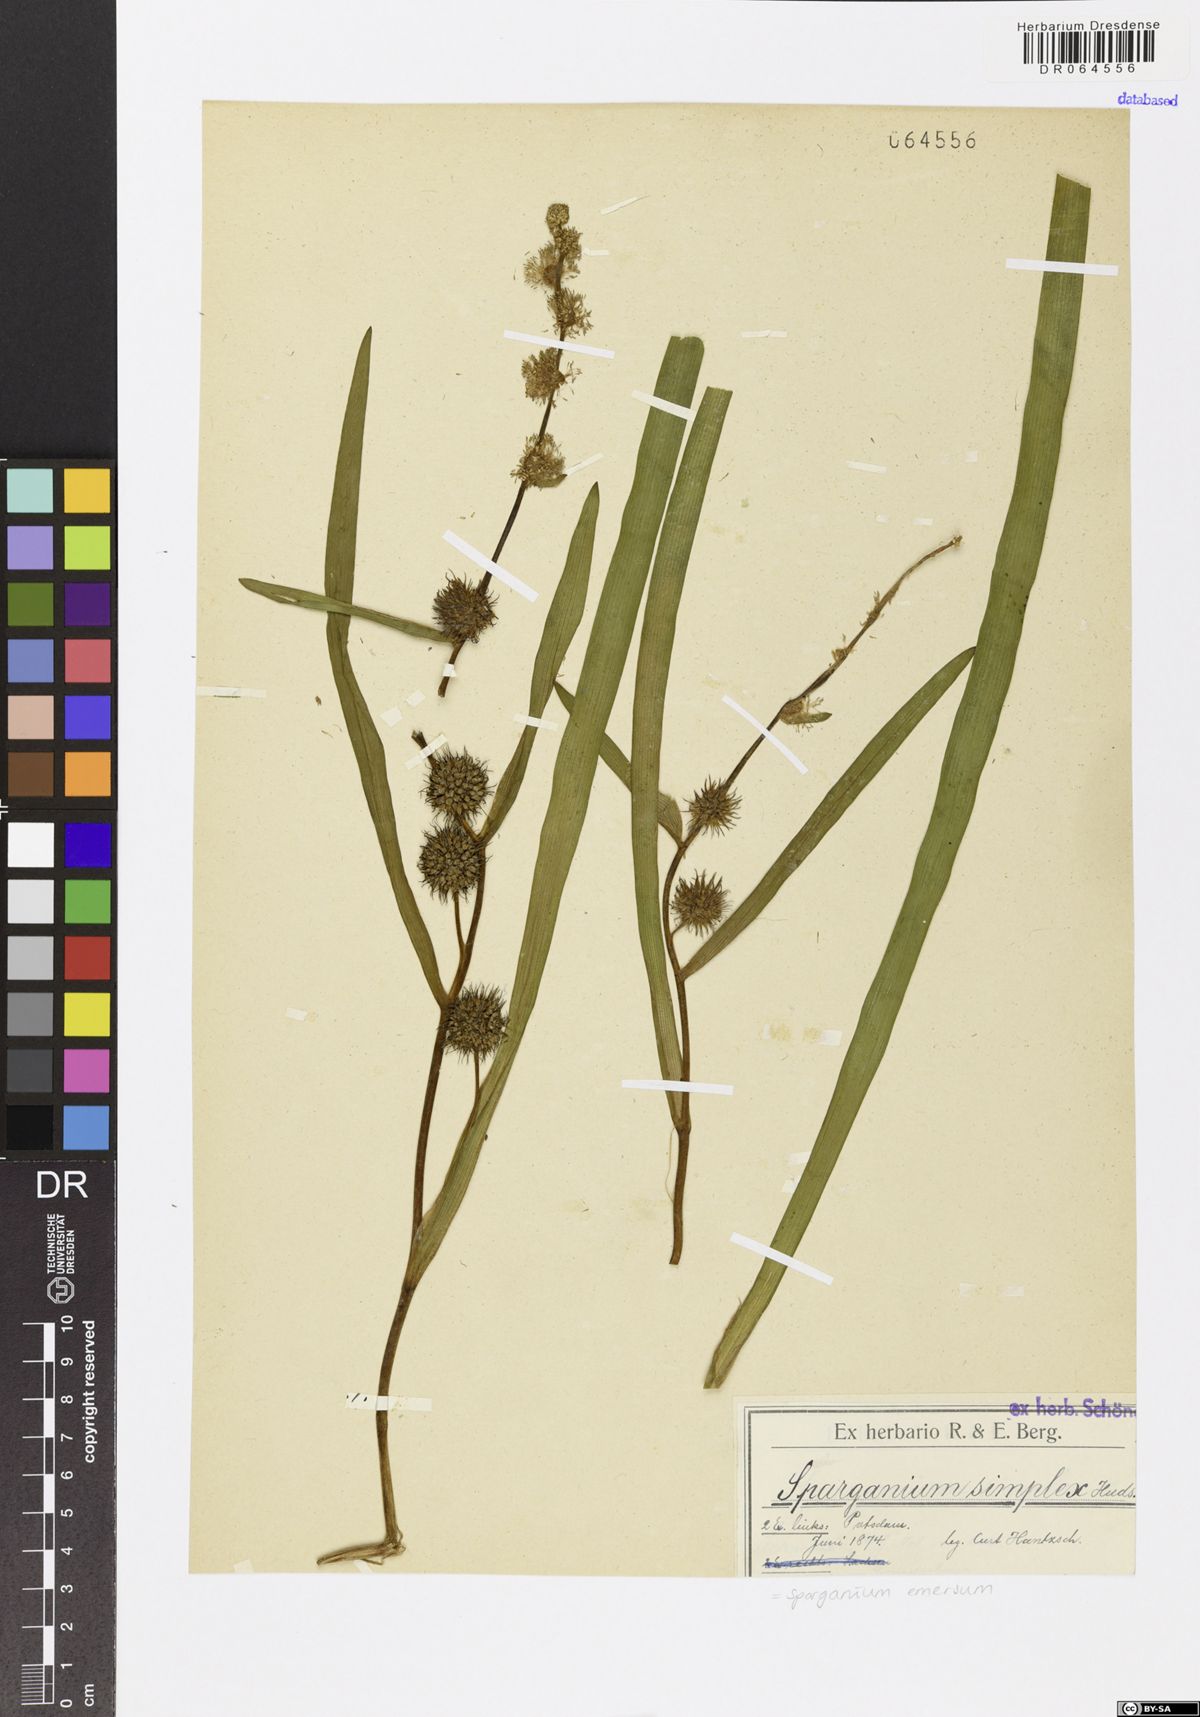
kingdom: Plantae
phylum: Tracheophyta
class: Liliopsida
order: Poales
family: Typhaceae
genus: Sparganium
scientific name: Sparganium emersum
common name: Unbranched bur-reed
